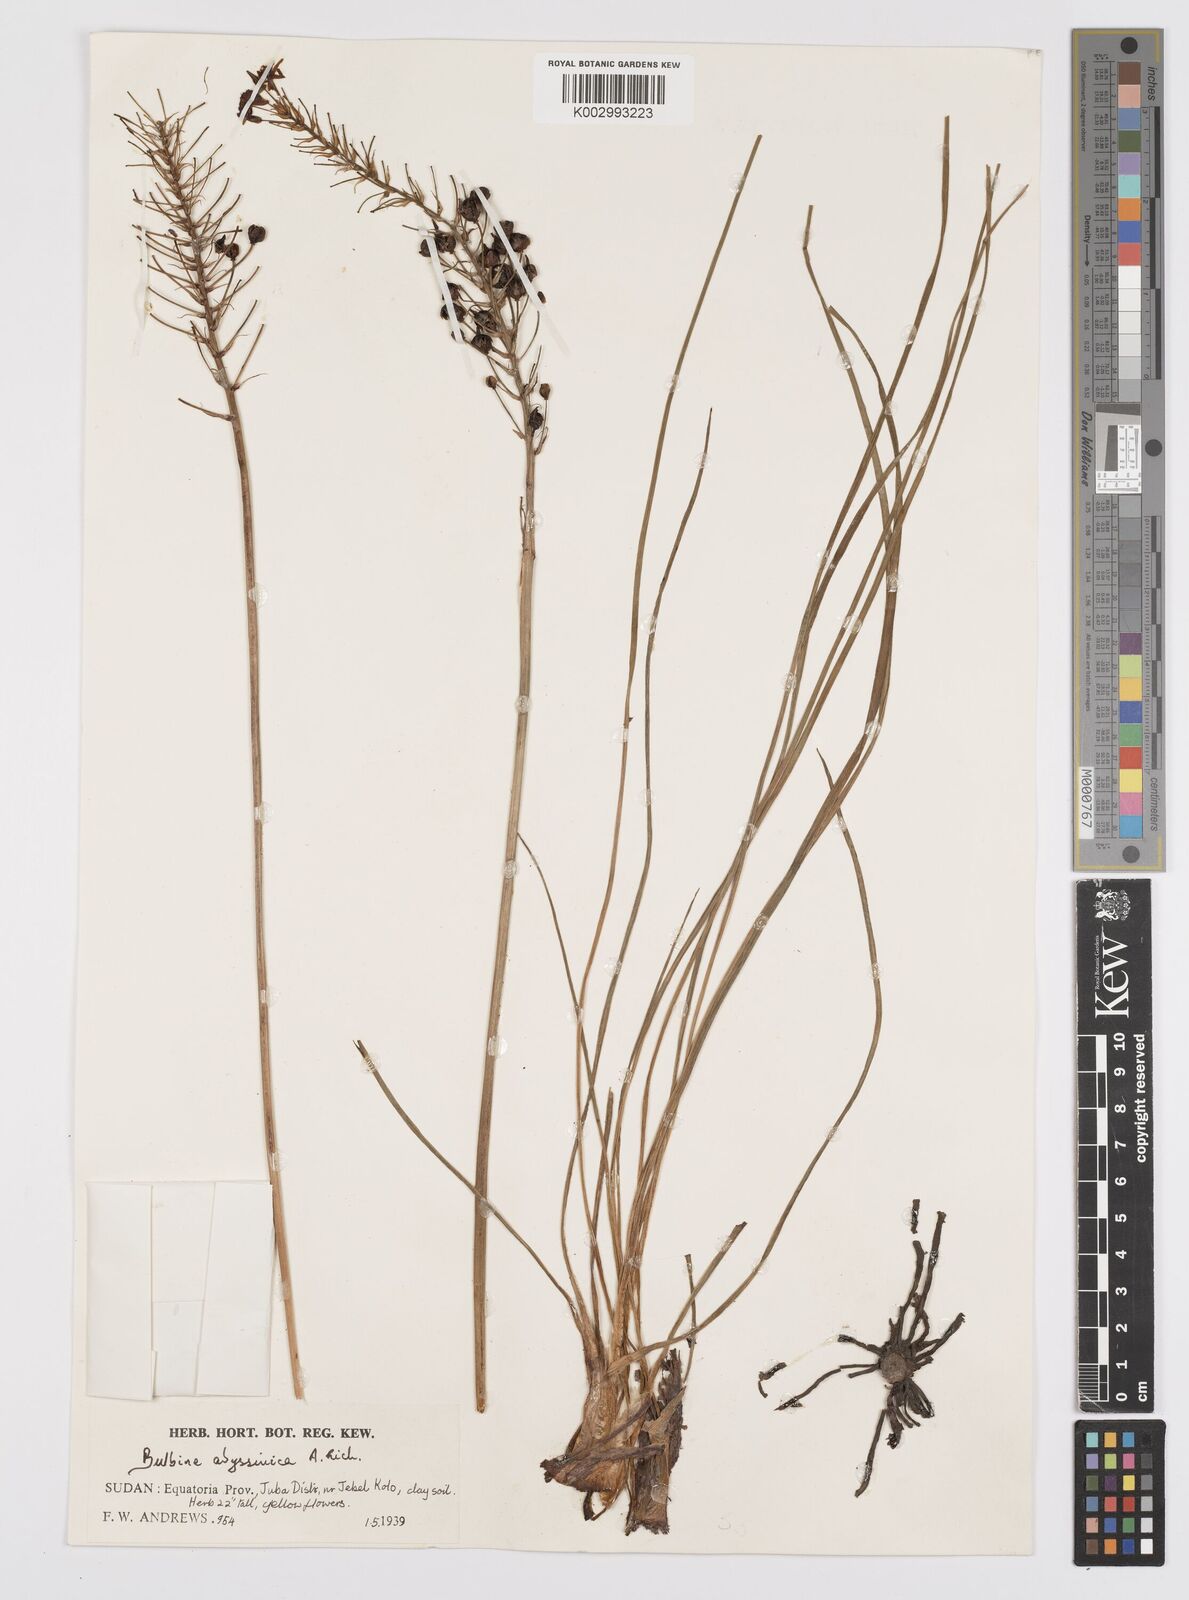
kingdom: Plantae
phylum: Tracheophyta
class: Liliopsida
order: Asparagales
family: Asphodelaceae
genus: Bulbine
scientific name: Bulbine abyssinica
